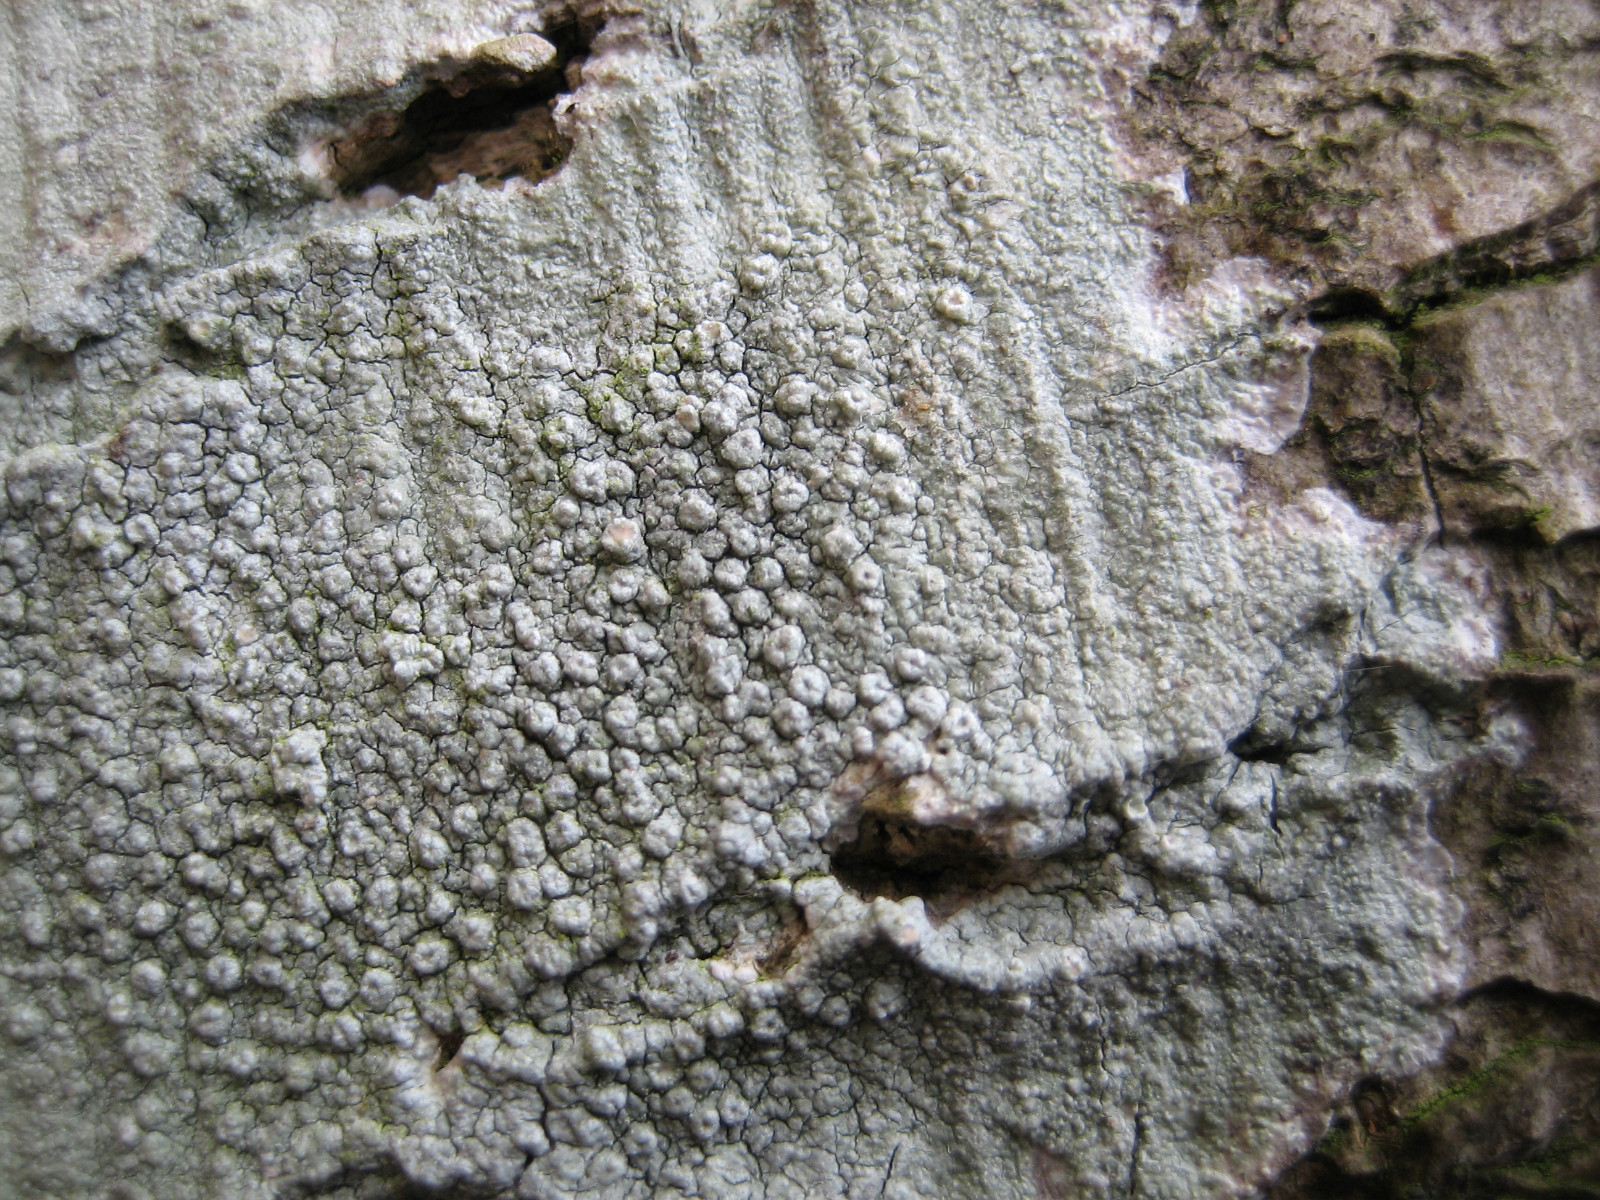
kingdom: Fungi
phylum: Ascomycota
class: Lecanoromycetes
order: Pertusariales
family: Pertusariaceae
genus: Pertusaria
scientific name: Pertusaria hymenea
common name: åben prikvortelav
